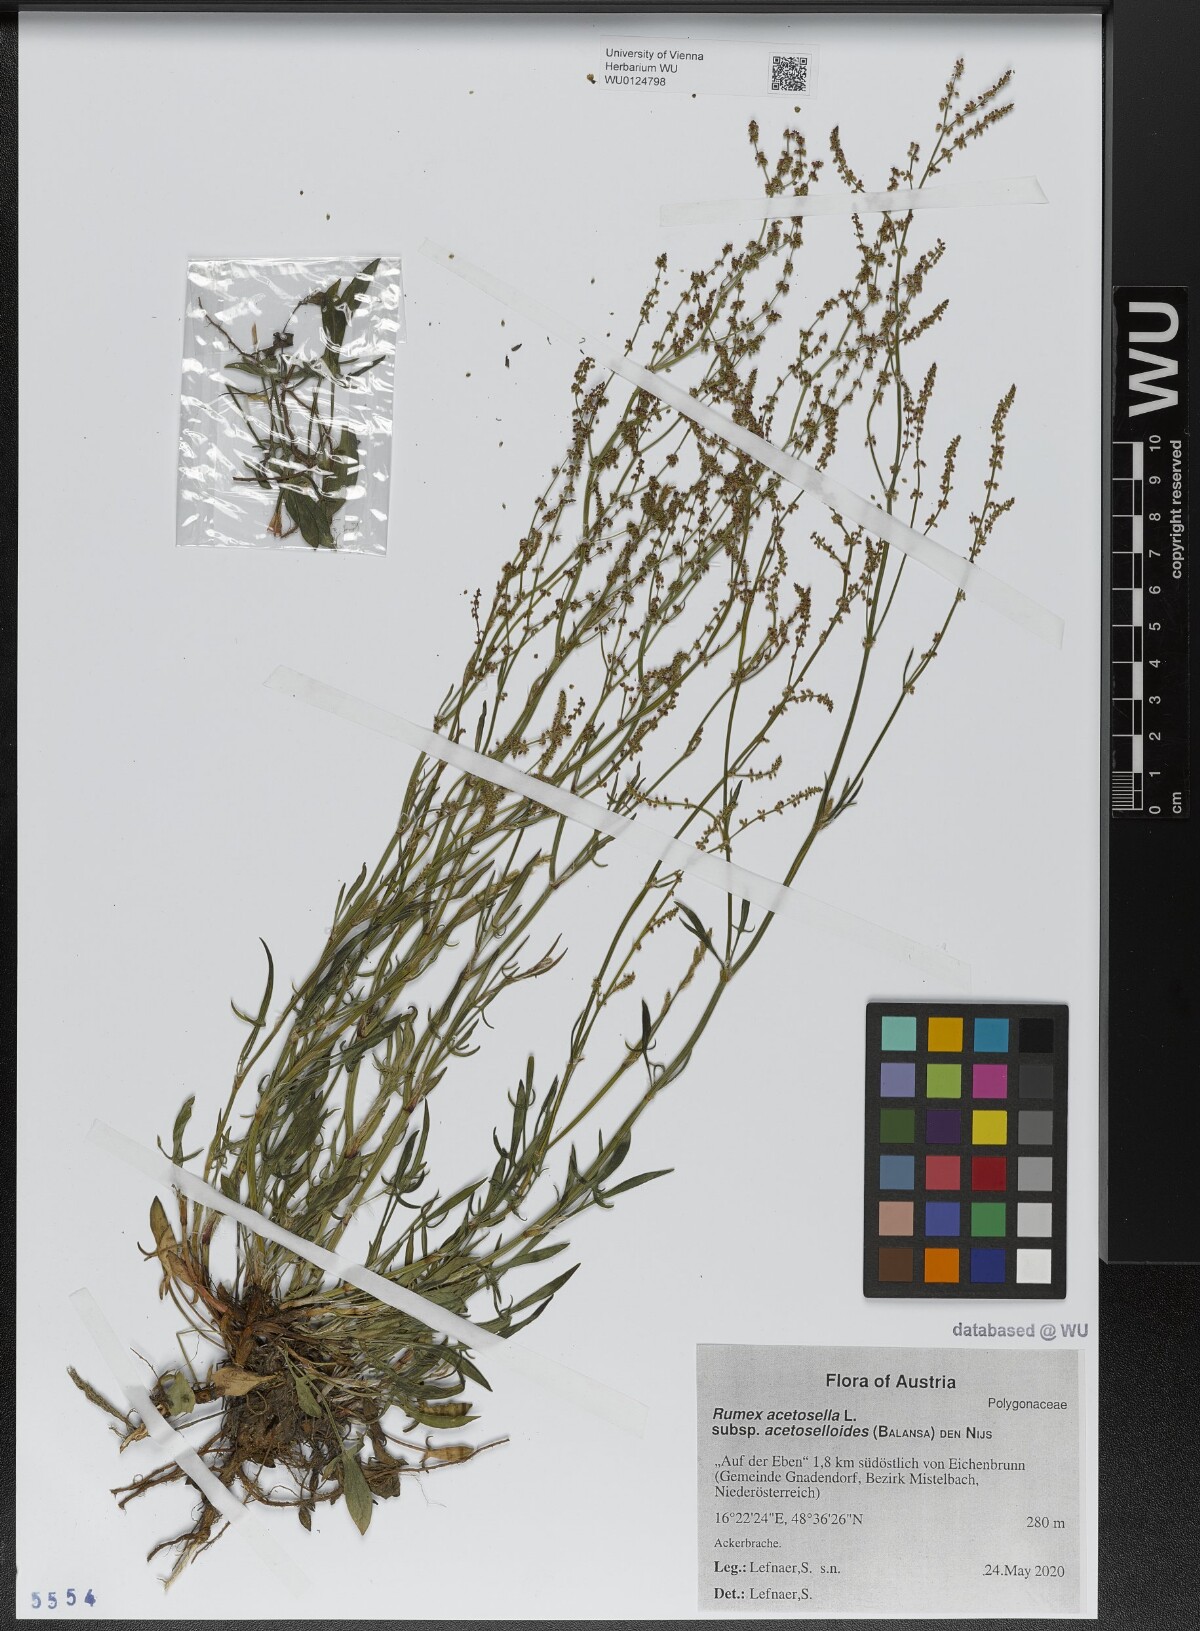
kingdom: Plantae
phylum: Tracheophyta
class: Magnoliopsida
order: Caryophyllales
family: Polygonaceae
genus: Rumex
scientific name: Rumex acetosella
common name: Common sheep sorrel
